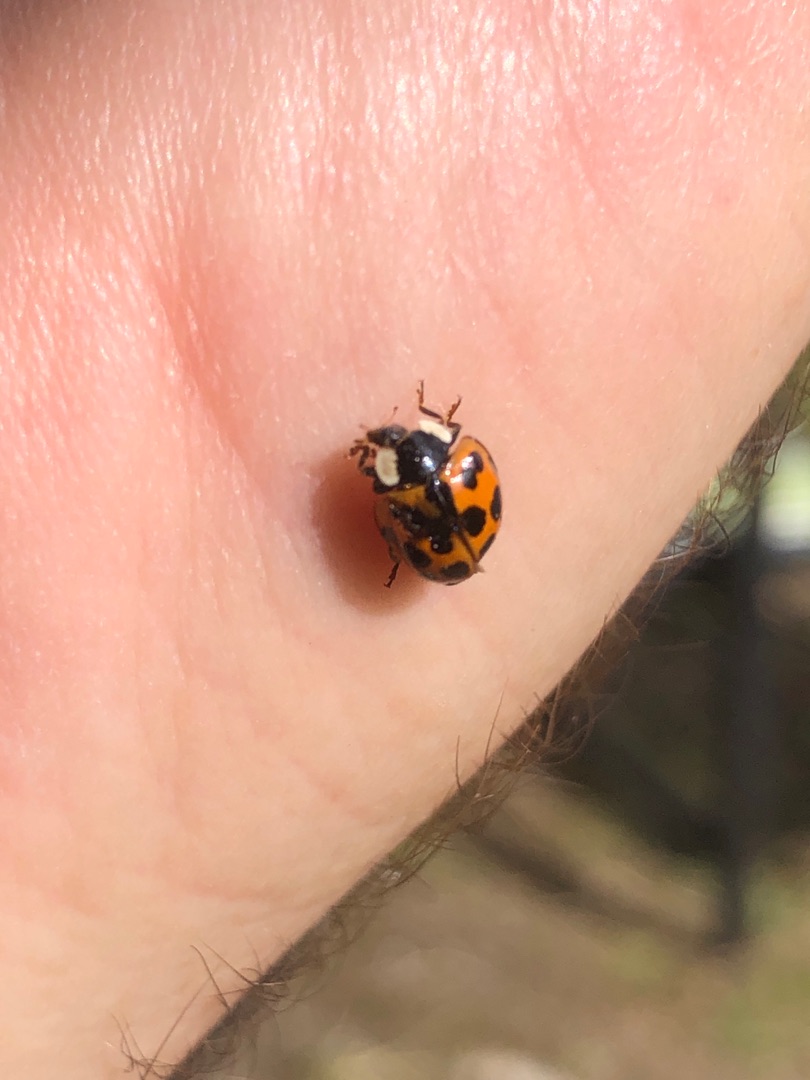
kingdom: Animalia
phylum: Arthropoda
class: Insecta
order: Coleoptera
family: Coccinellidae
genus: Harmonia
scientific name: Harmonia axyridis
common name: Harlekinmariehøne
